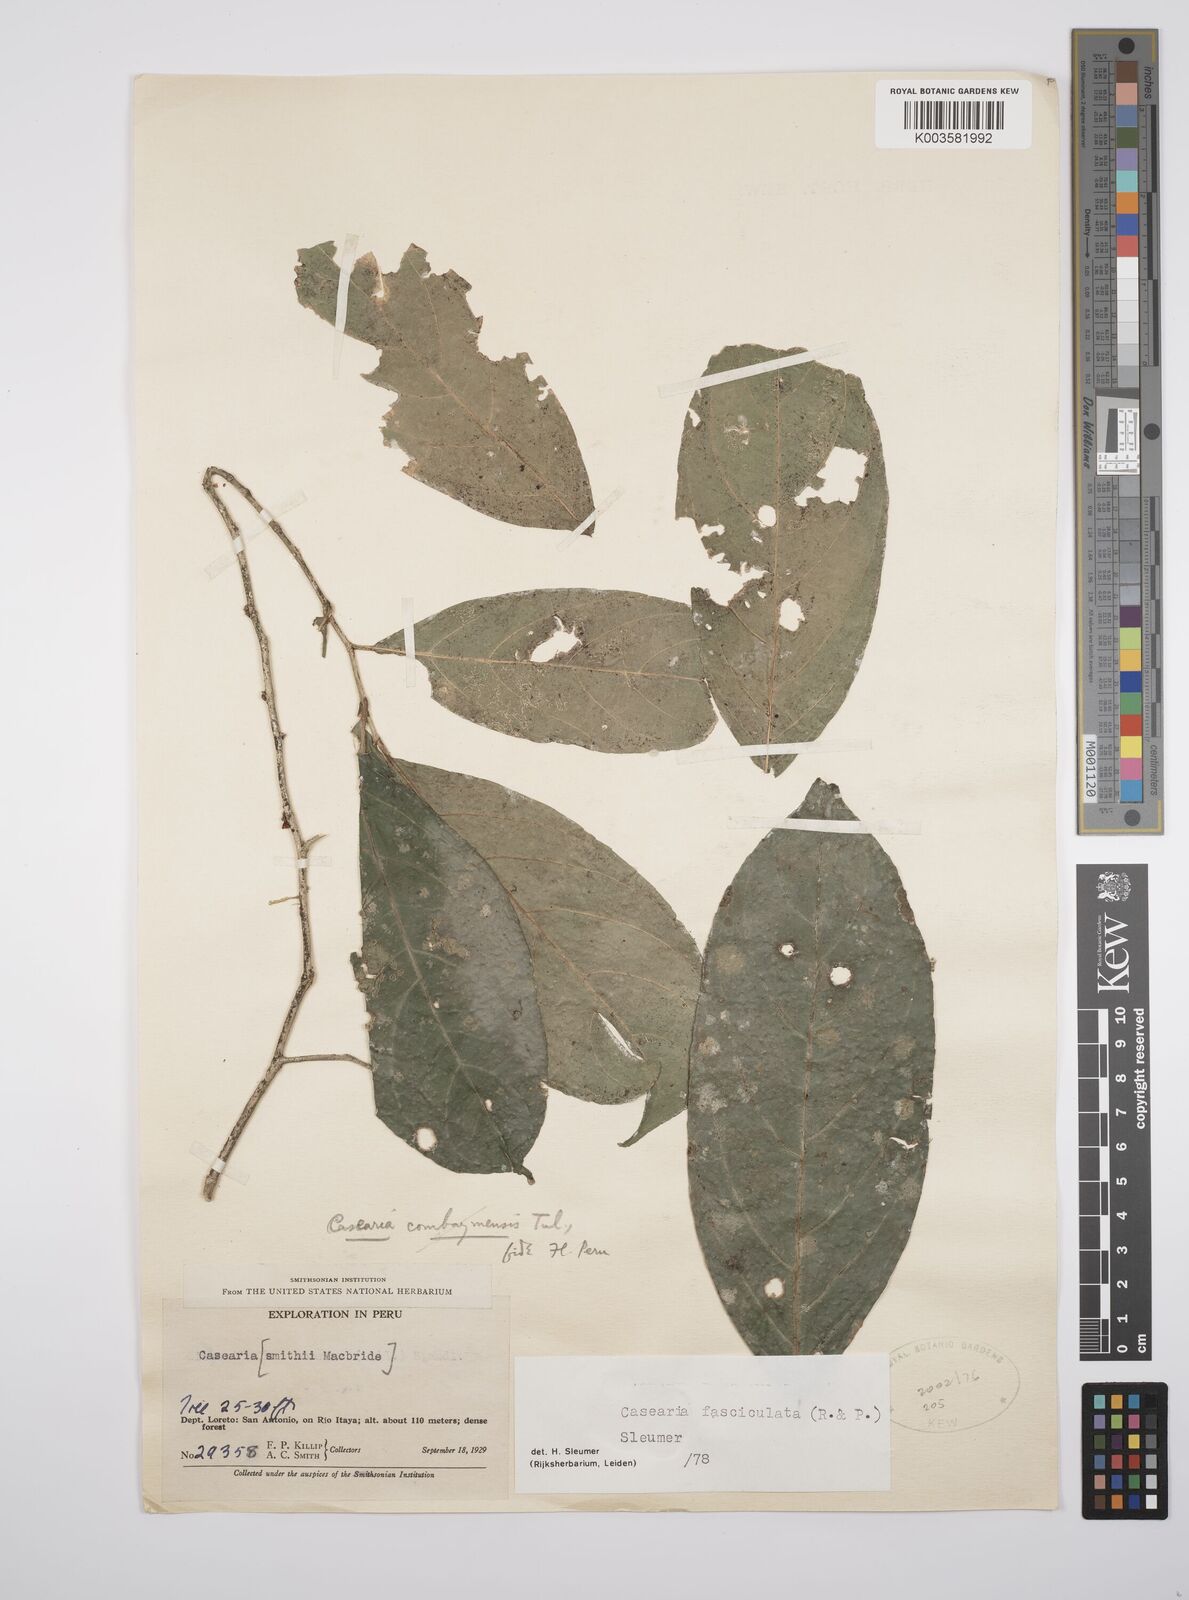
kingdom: Plantae
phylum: Tracheophyta
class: Magnoliopsida
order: Malpighiales
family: Salicaceae
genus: Casearia
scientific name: Casearia
